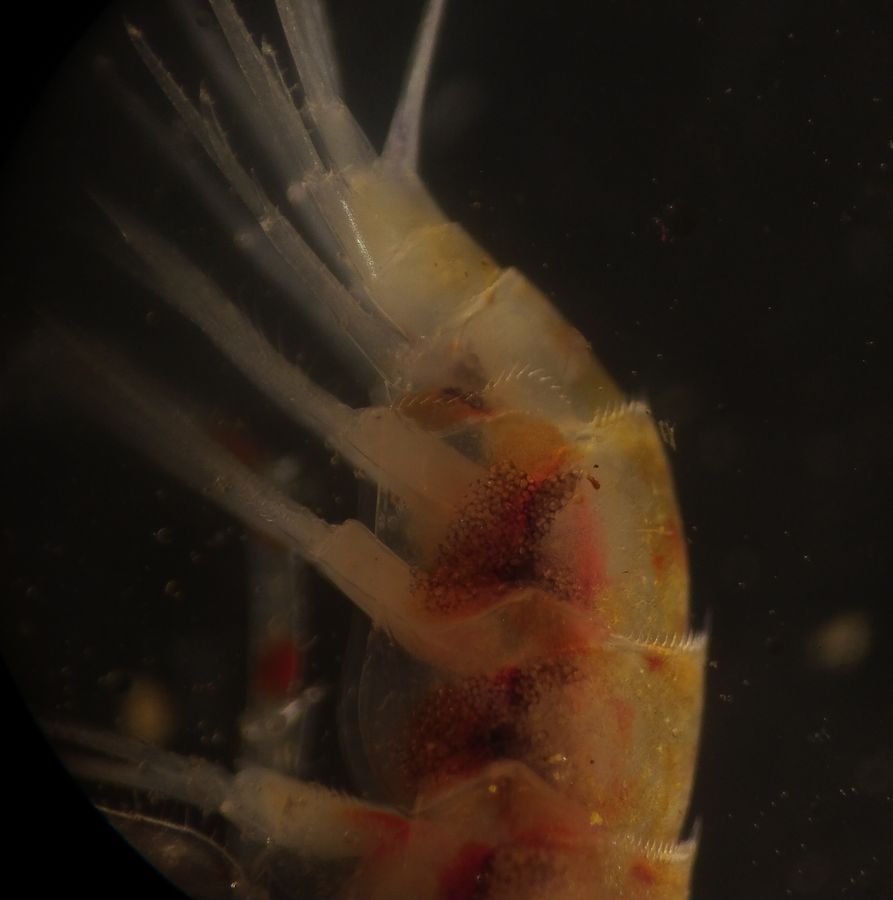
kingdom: Animalia
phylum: Arthropoda
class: Malacostraca
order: Amphipoda
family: Synopiidae
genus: Syrrhoe
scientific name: Syrrhoe crenulata
